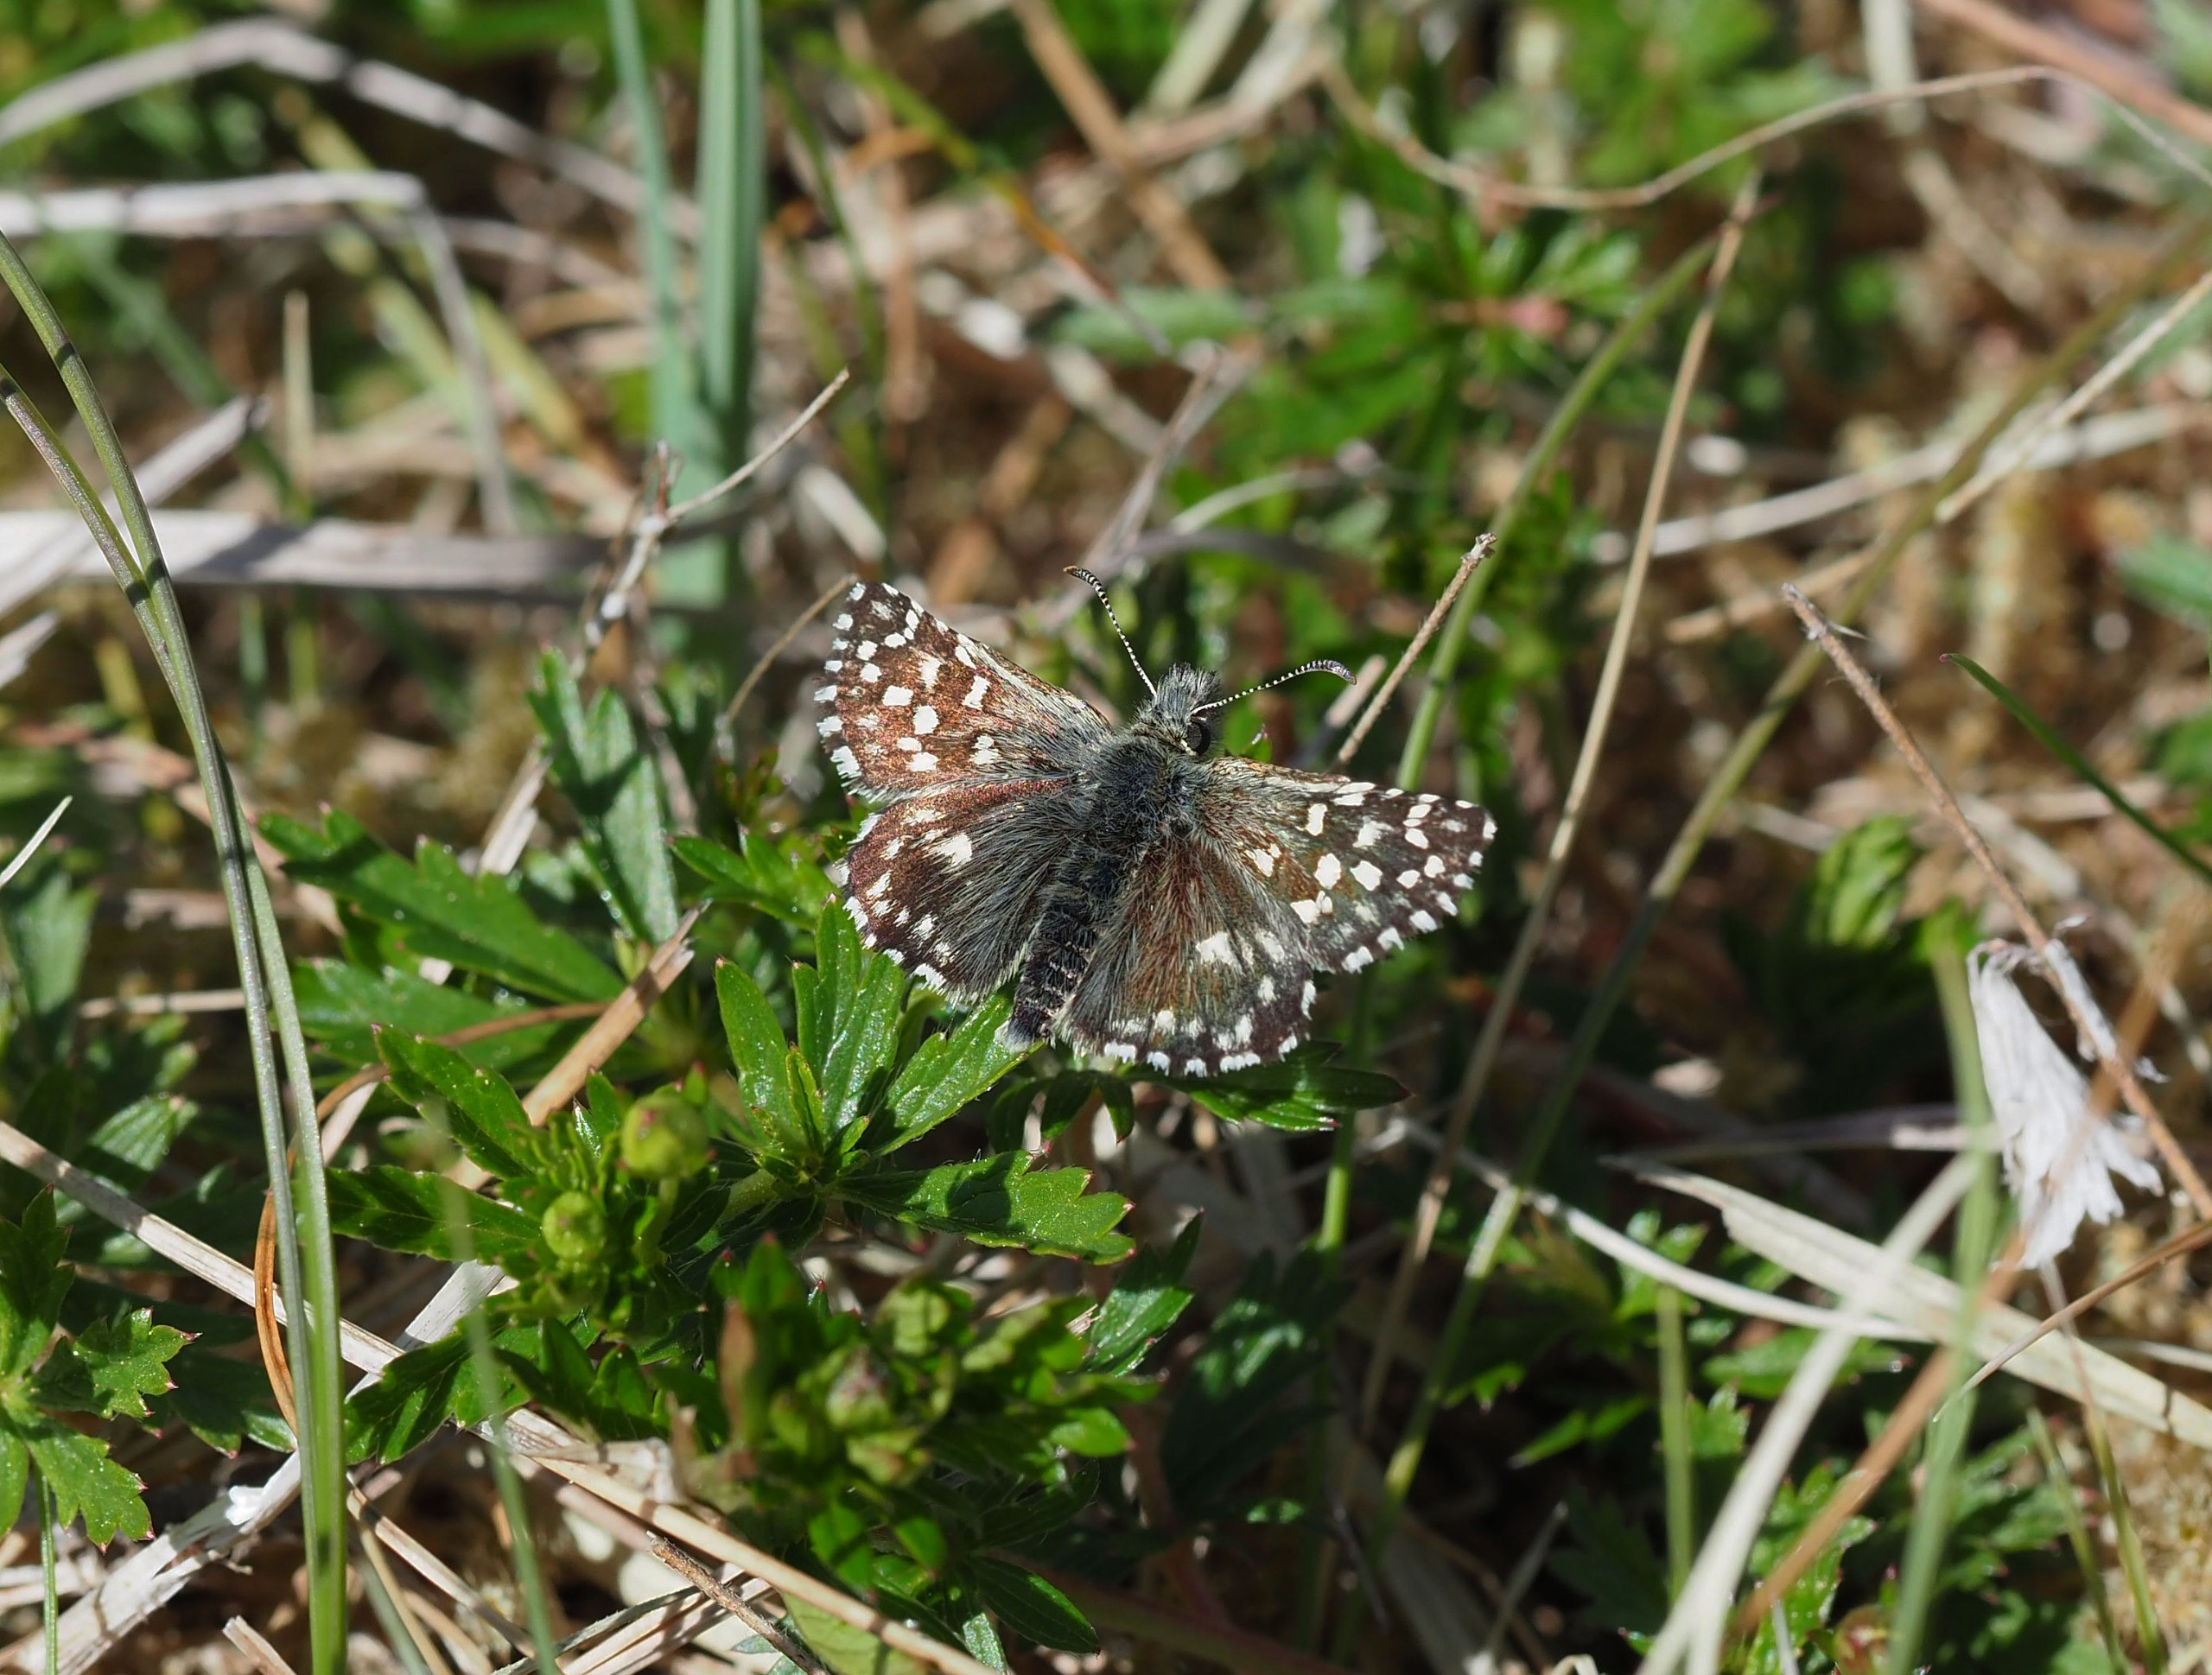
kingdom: Animalia
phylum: Arthropoda
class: Insecta
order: Lepidoptera
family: Hesperiidae
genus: Pyrgus
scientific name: Pyrgus malvae
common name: Spættet bredpande
